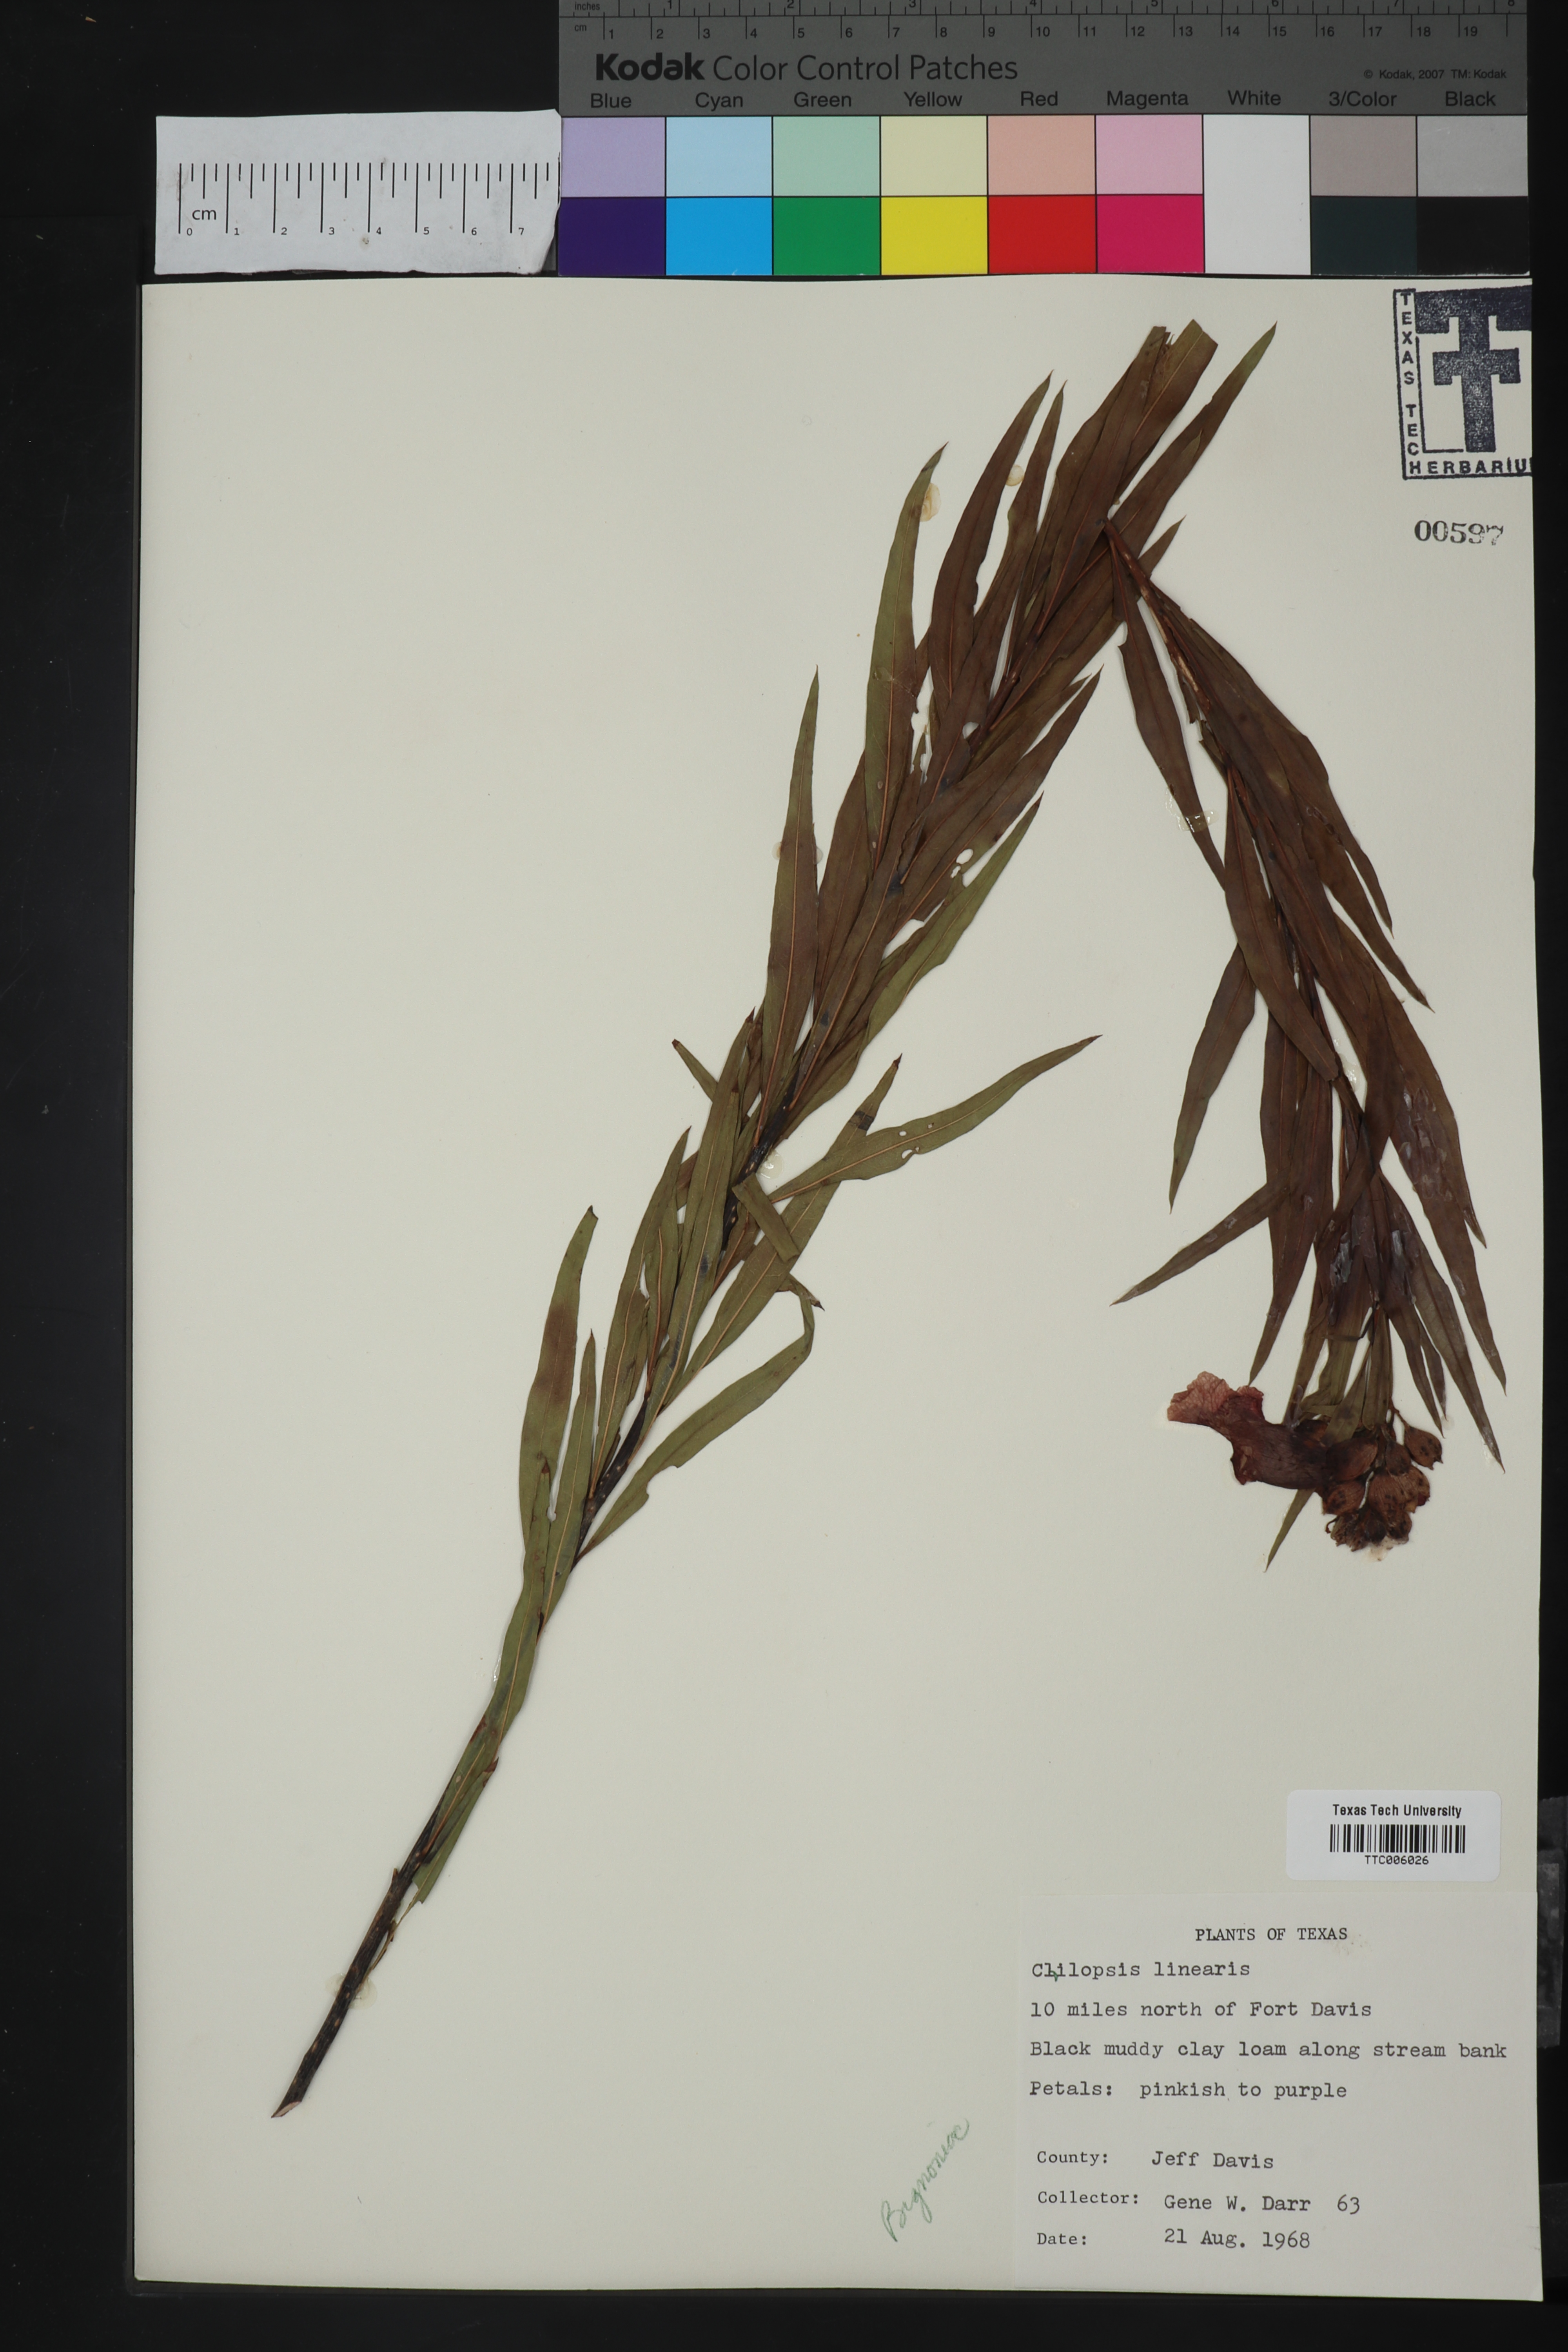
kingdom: Plantae
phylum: Tracheophyta
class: Magnoliopsida
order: Lamiales
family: Bignoniaceae
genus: Chilopsis
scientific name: Chilopsis linearis
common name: Desert-willow
